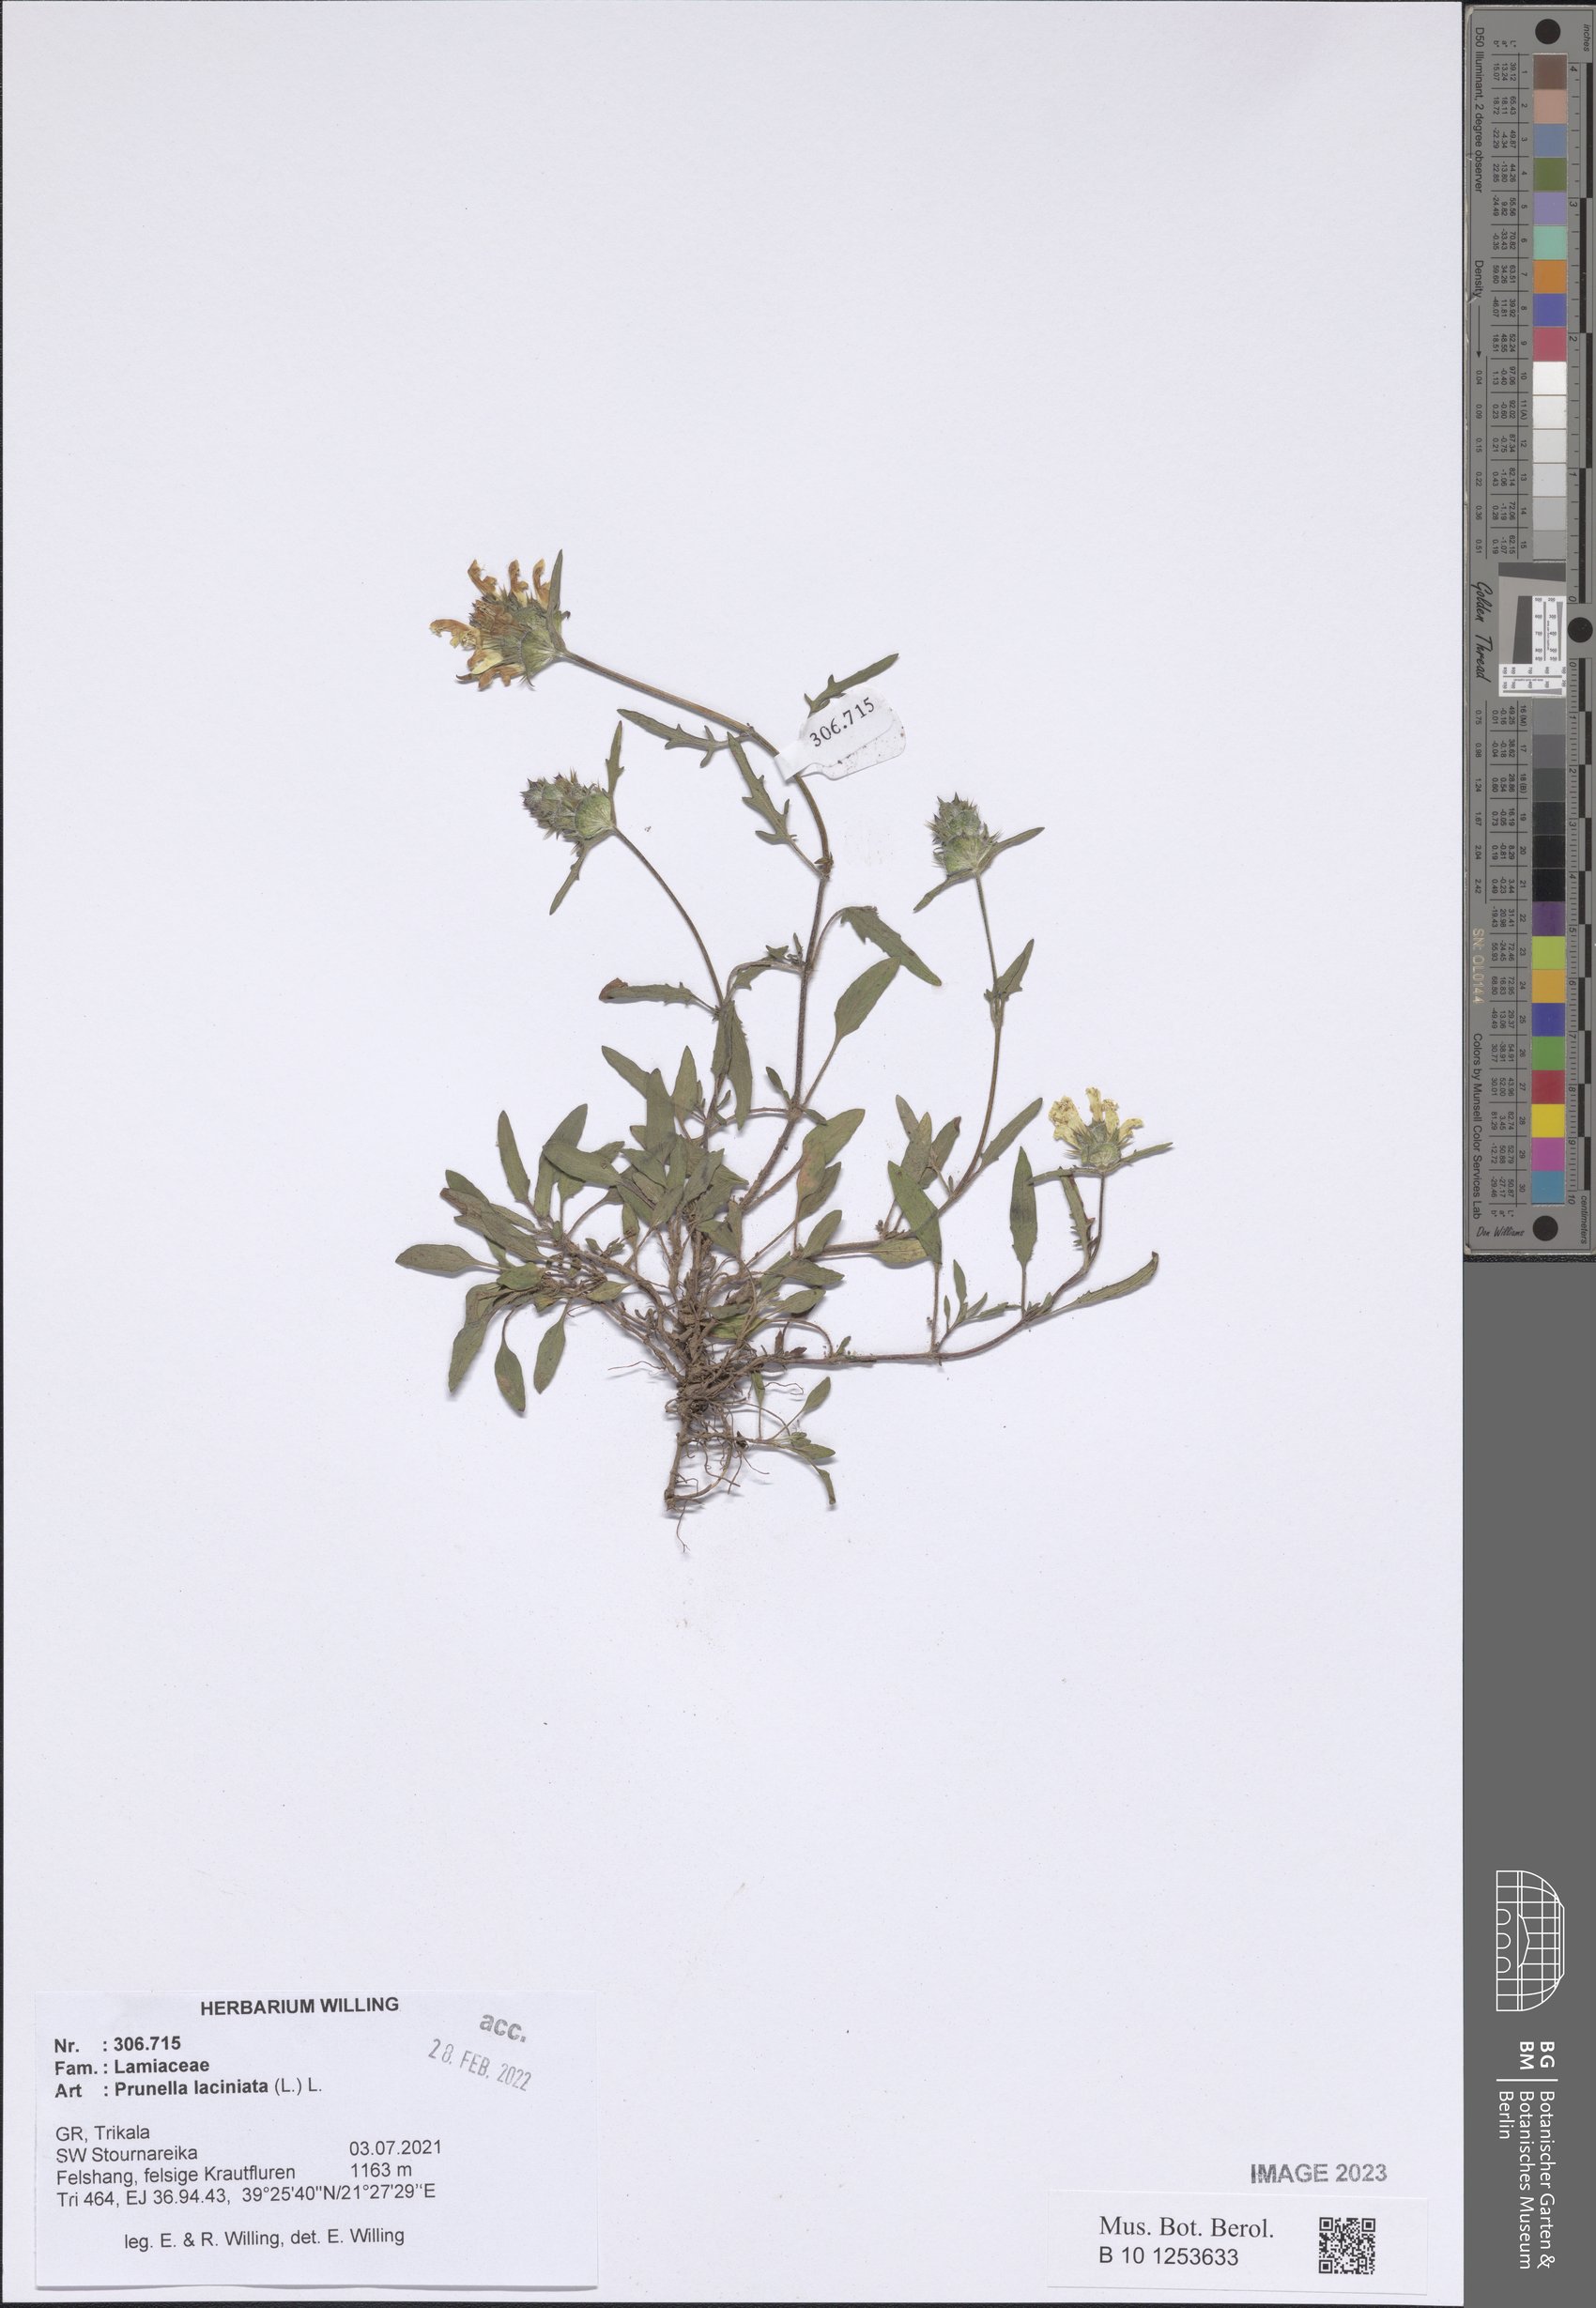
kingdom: Plantae
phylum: Tracheophyta
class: Magnoliopsida
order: Lamiales
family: Lamiaceae
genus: Prunella
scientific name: Prunella laciniata
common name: Cut-leaved selfheal
